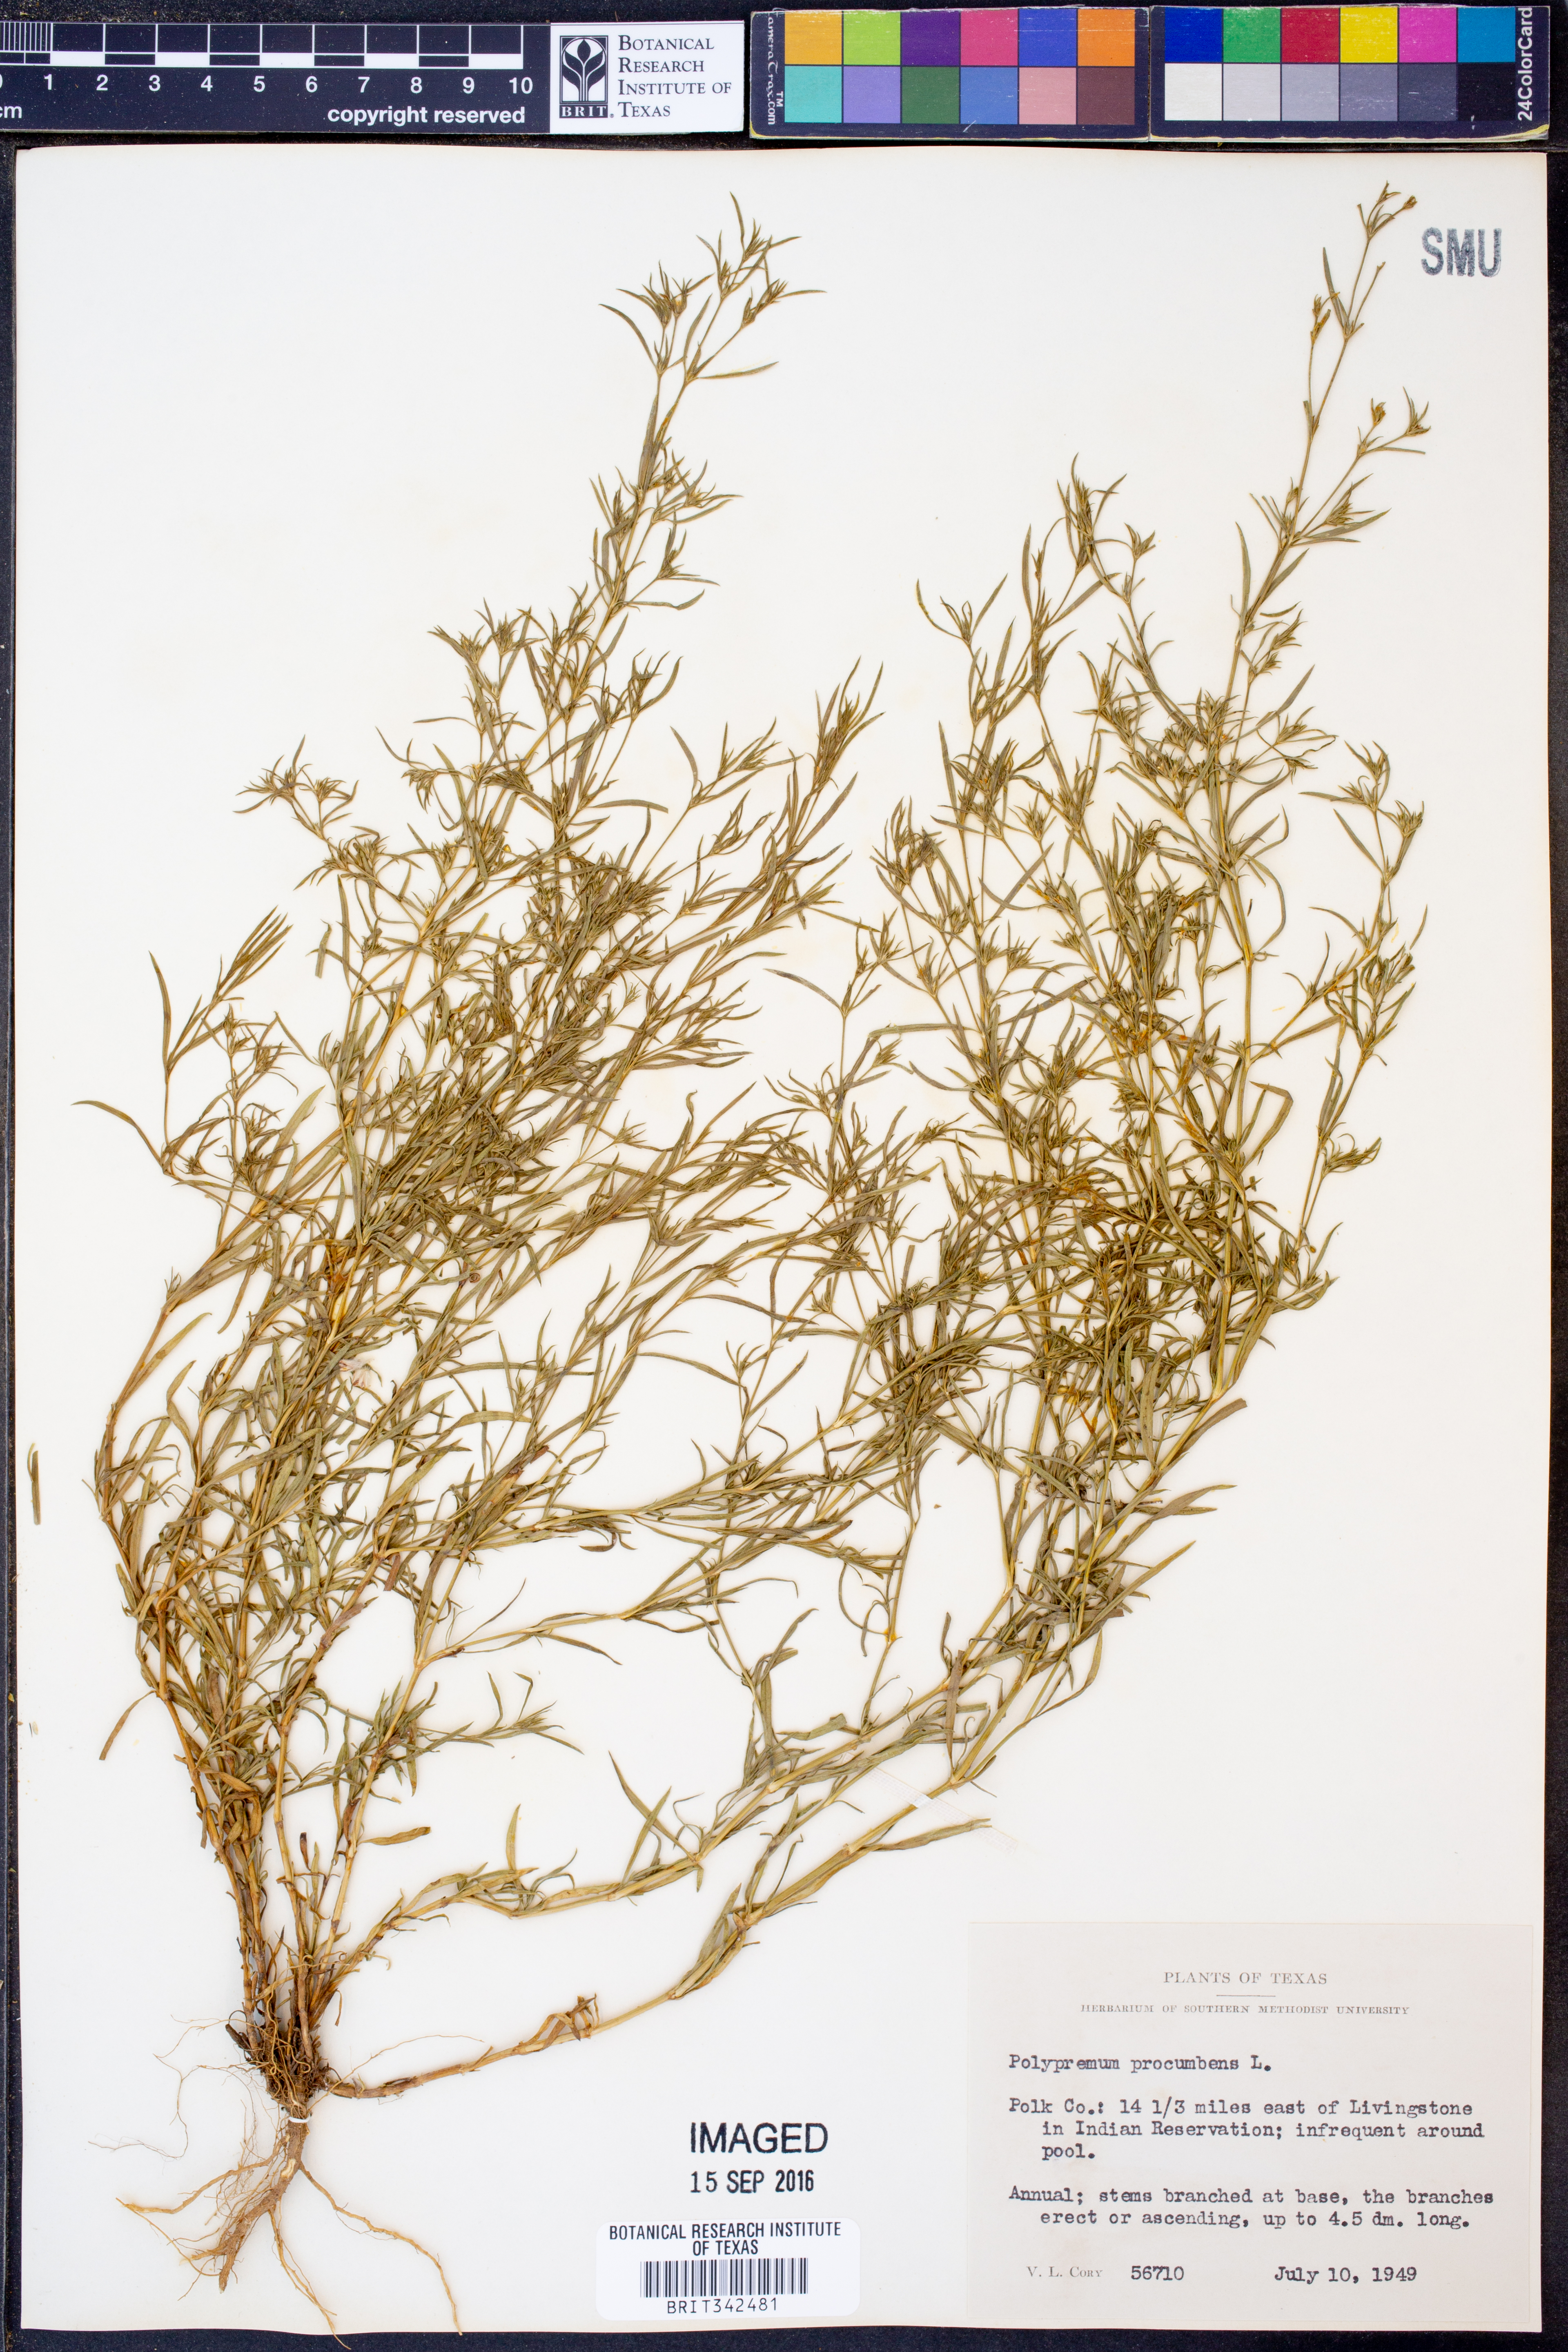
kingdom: Plantae
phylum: Tracheophyta
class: Magnoliopsida
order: Lamiales
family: Tetrachondraceae
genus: Polypremum
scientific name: Polypremum procumbens
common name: Juniper-leaf
